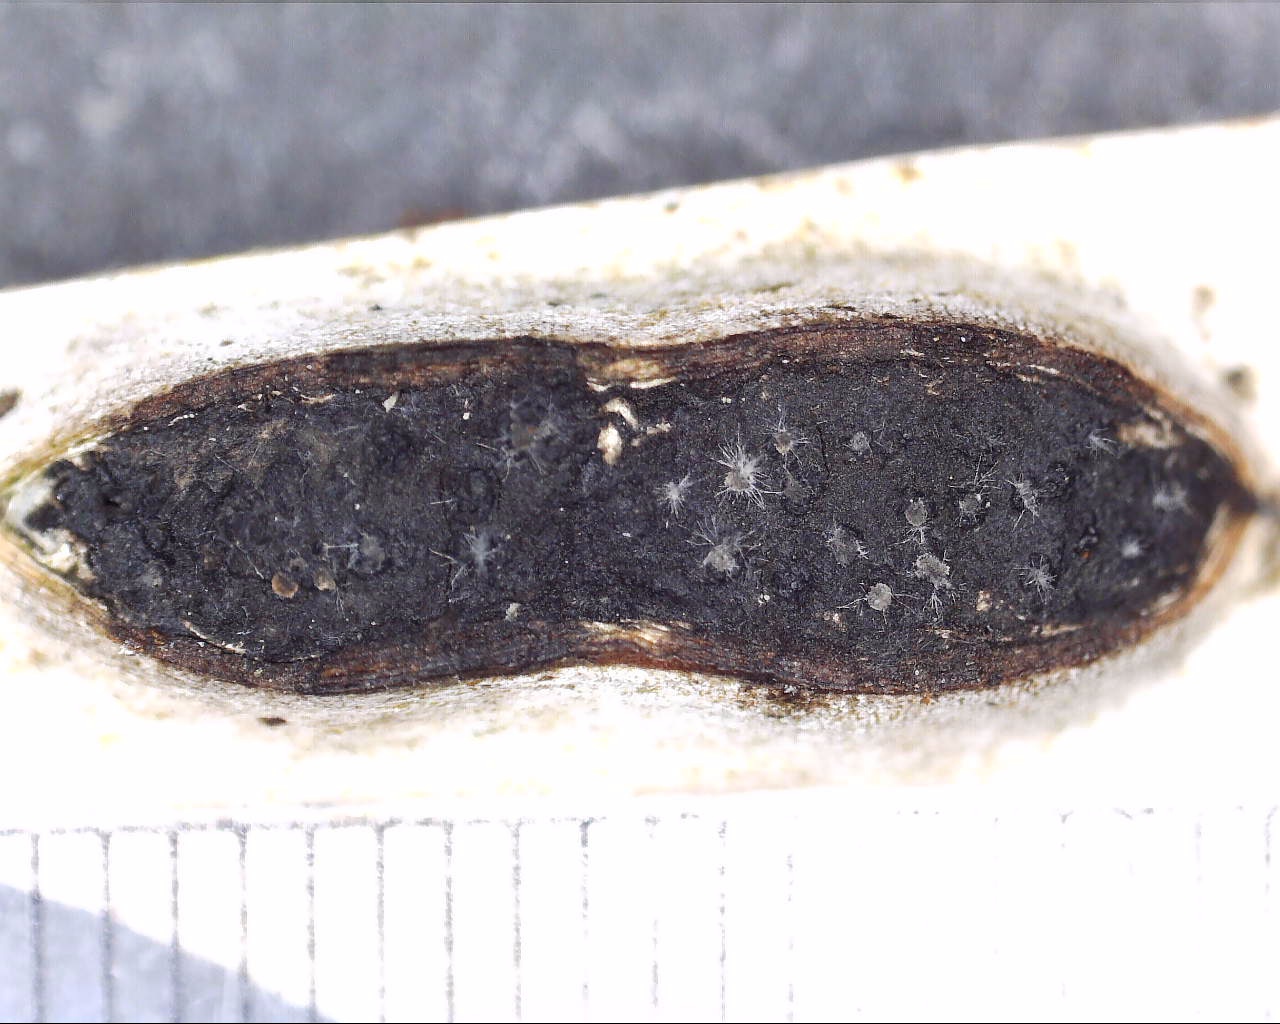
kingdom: Fungi
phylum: Ascomycota
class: Sordariomycetes
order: Xylariales
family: Diatrypaceae
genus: Diatrypella
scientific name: Diatrypella favacea
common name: klemt kulskorpe
